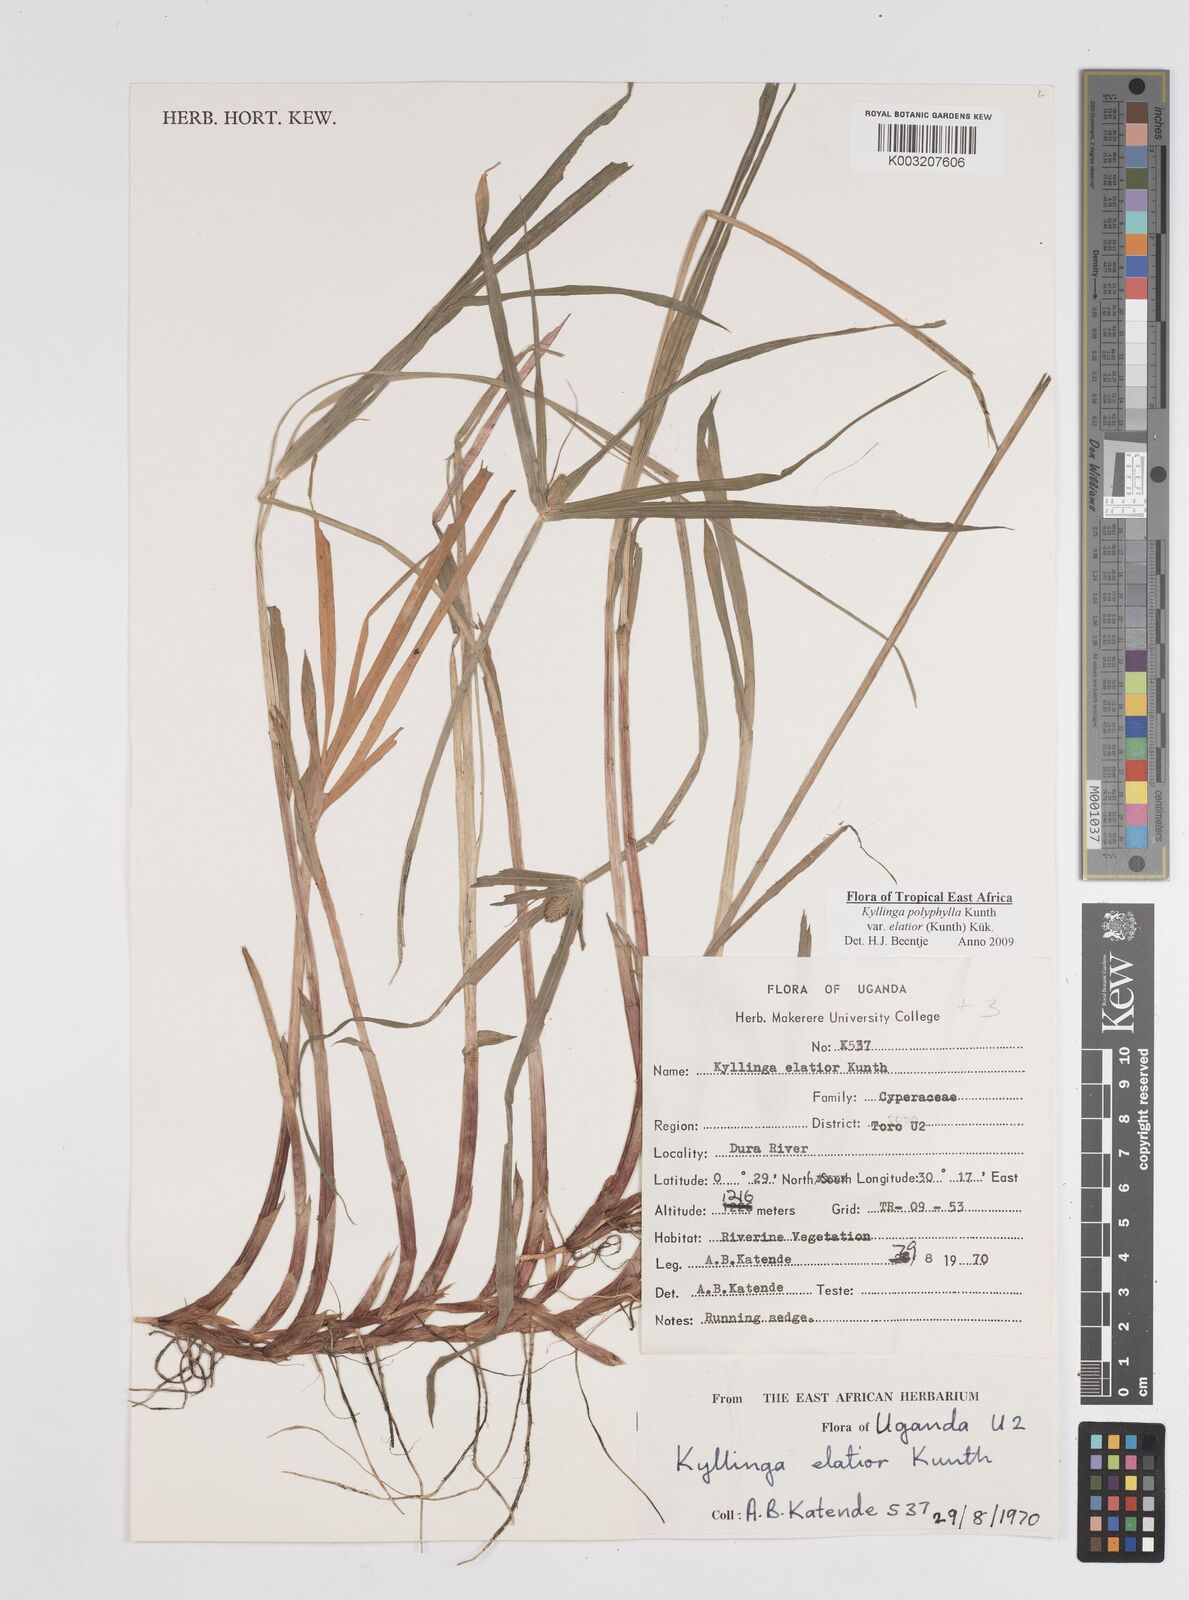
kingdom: Plantae
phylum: Tracheophyta
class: Liliopsida
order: Poales
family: Cyperaceae
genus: Cyperus
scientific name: Cyperus
